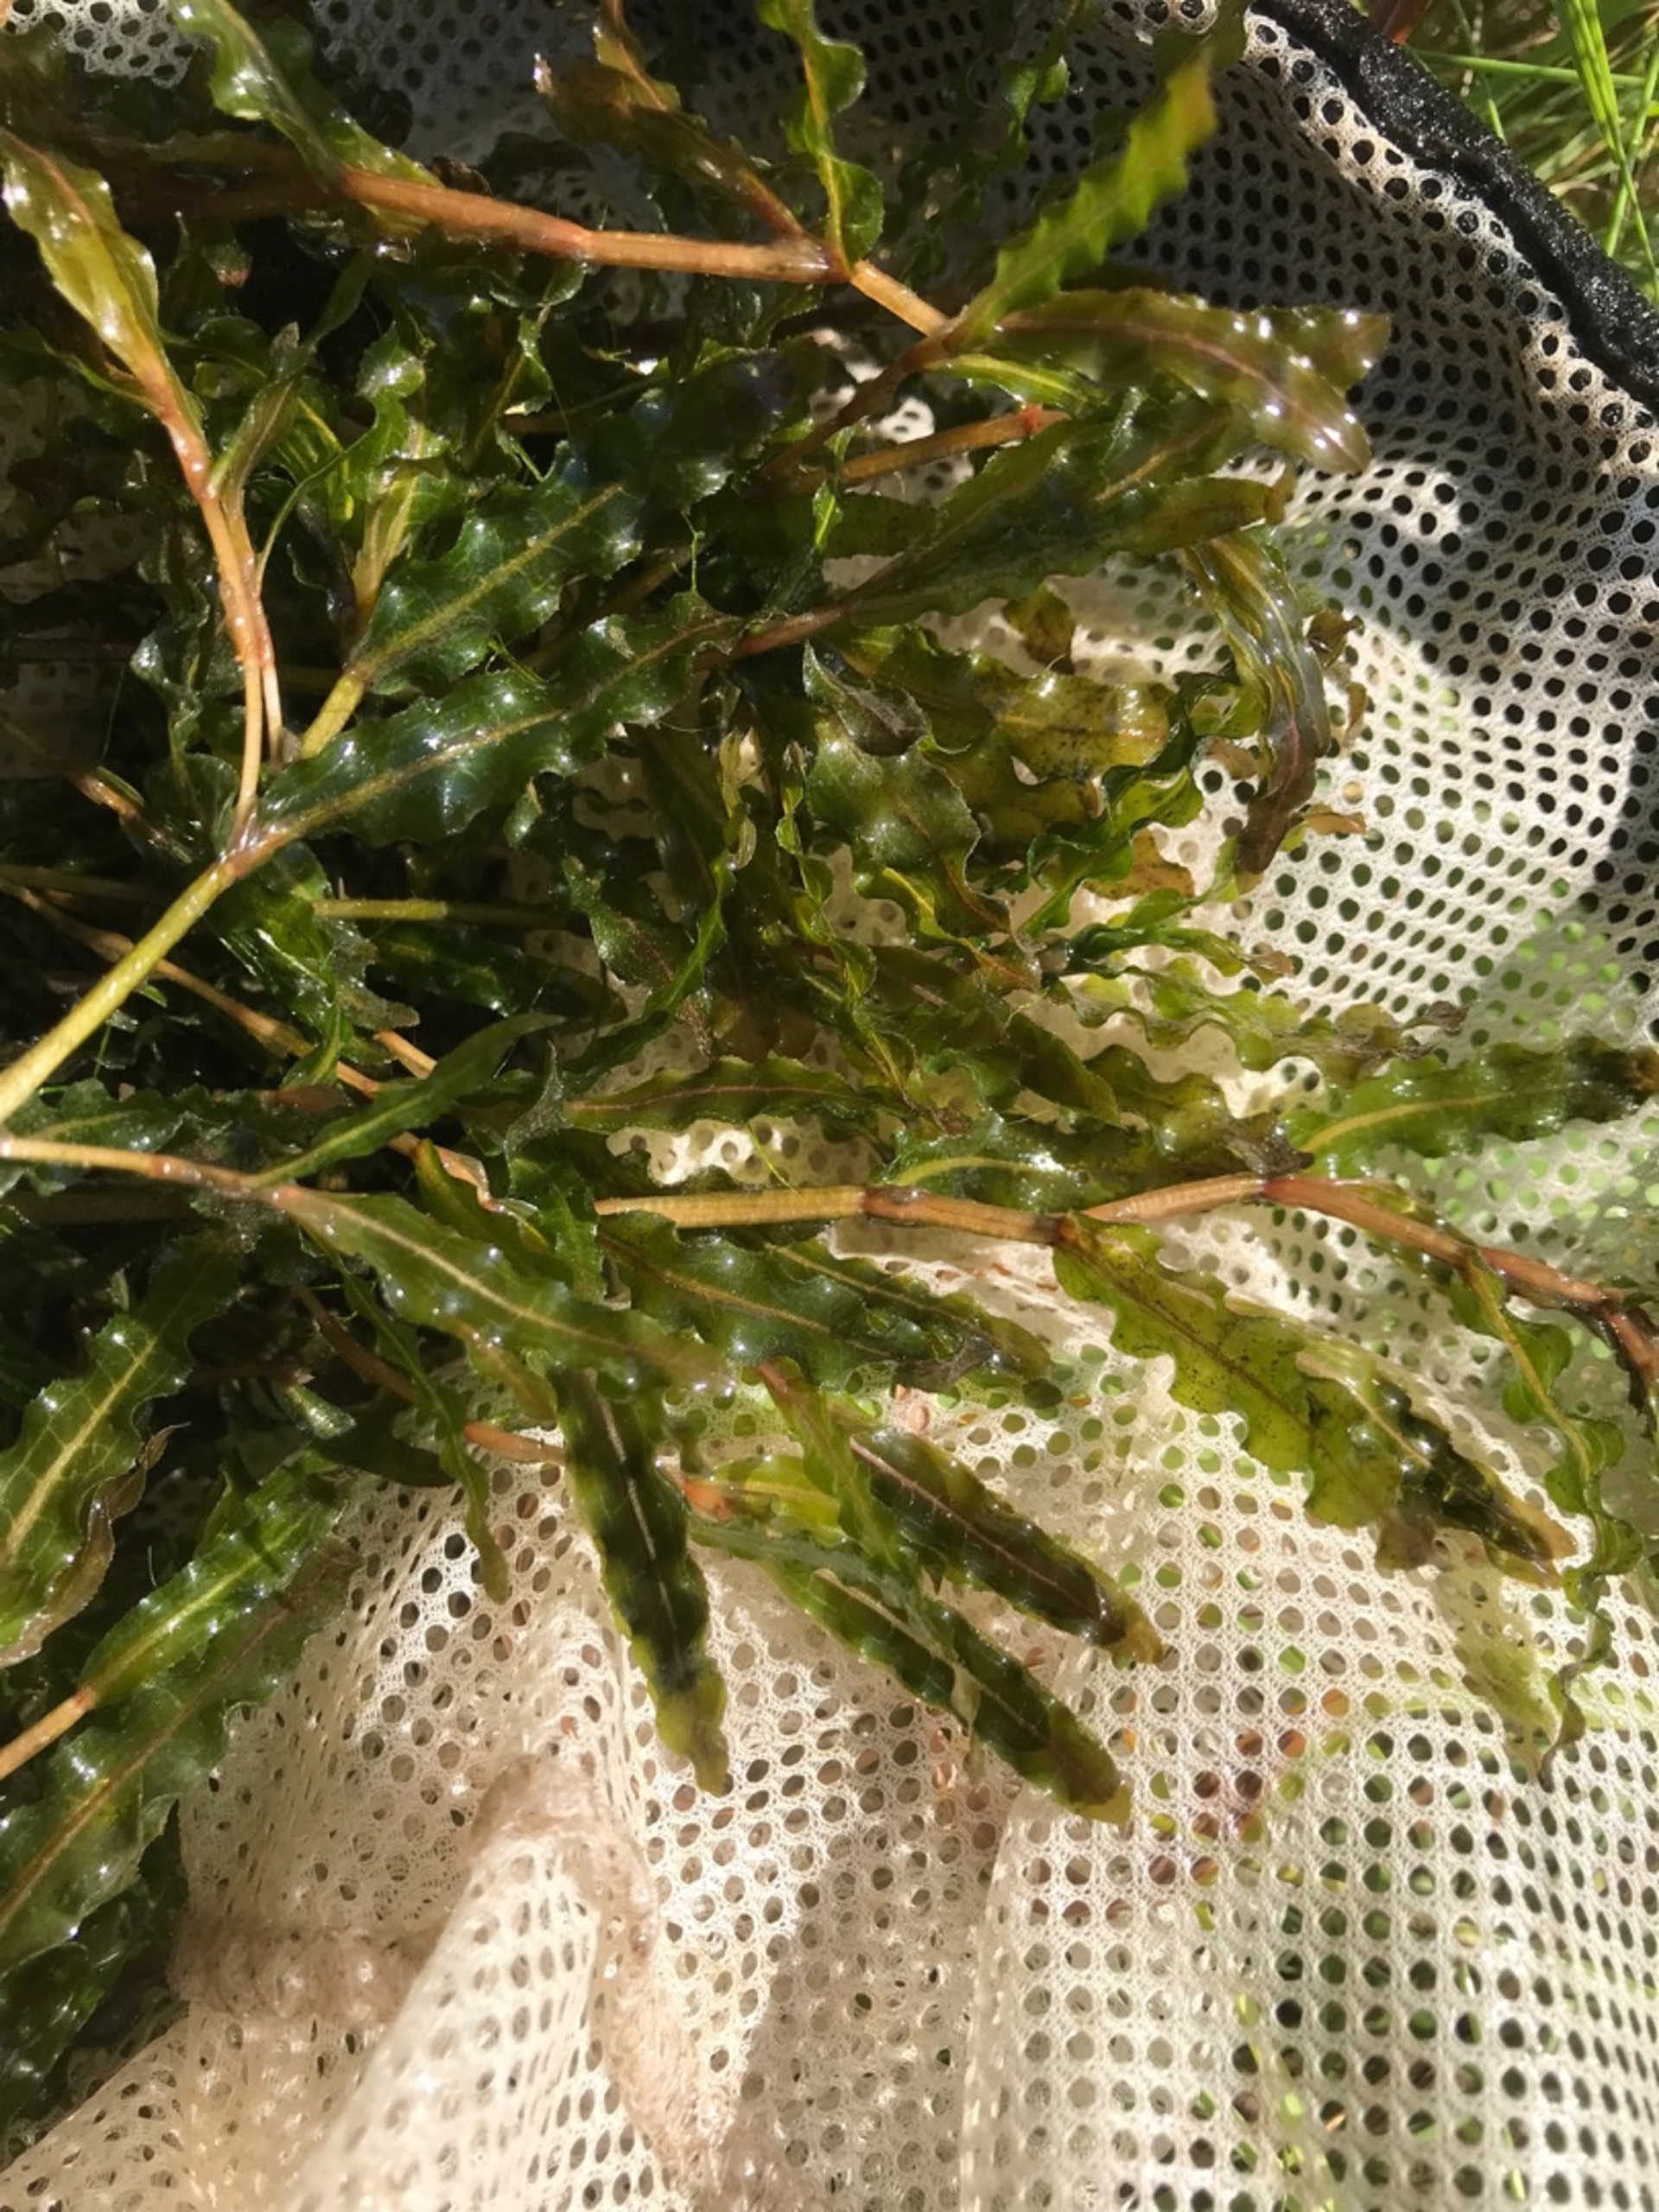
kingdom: Plantae
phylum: Tracheophyta
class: Liliopsida
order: Alismatales
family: Potamogetonaceae
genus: Potamogeton
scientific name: Potamogeton crispus
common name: Kruset vandaks
